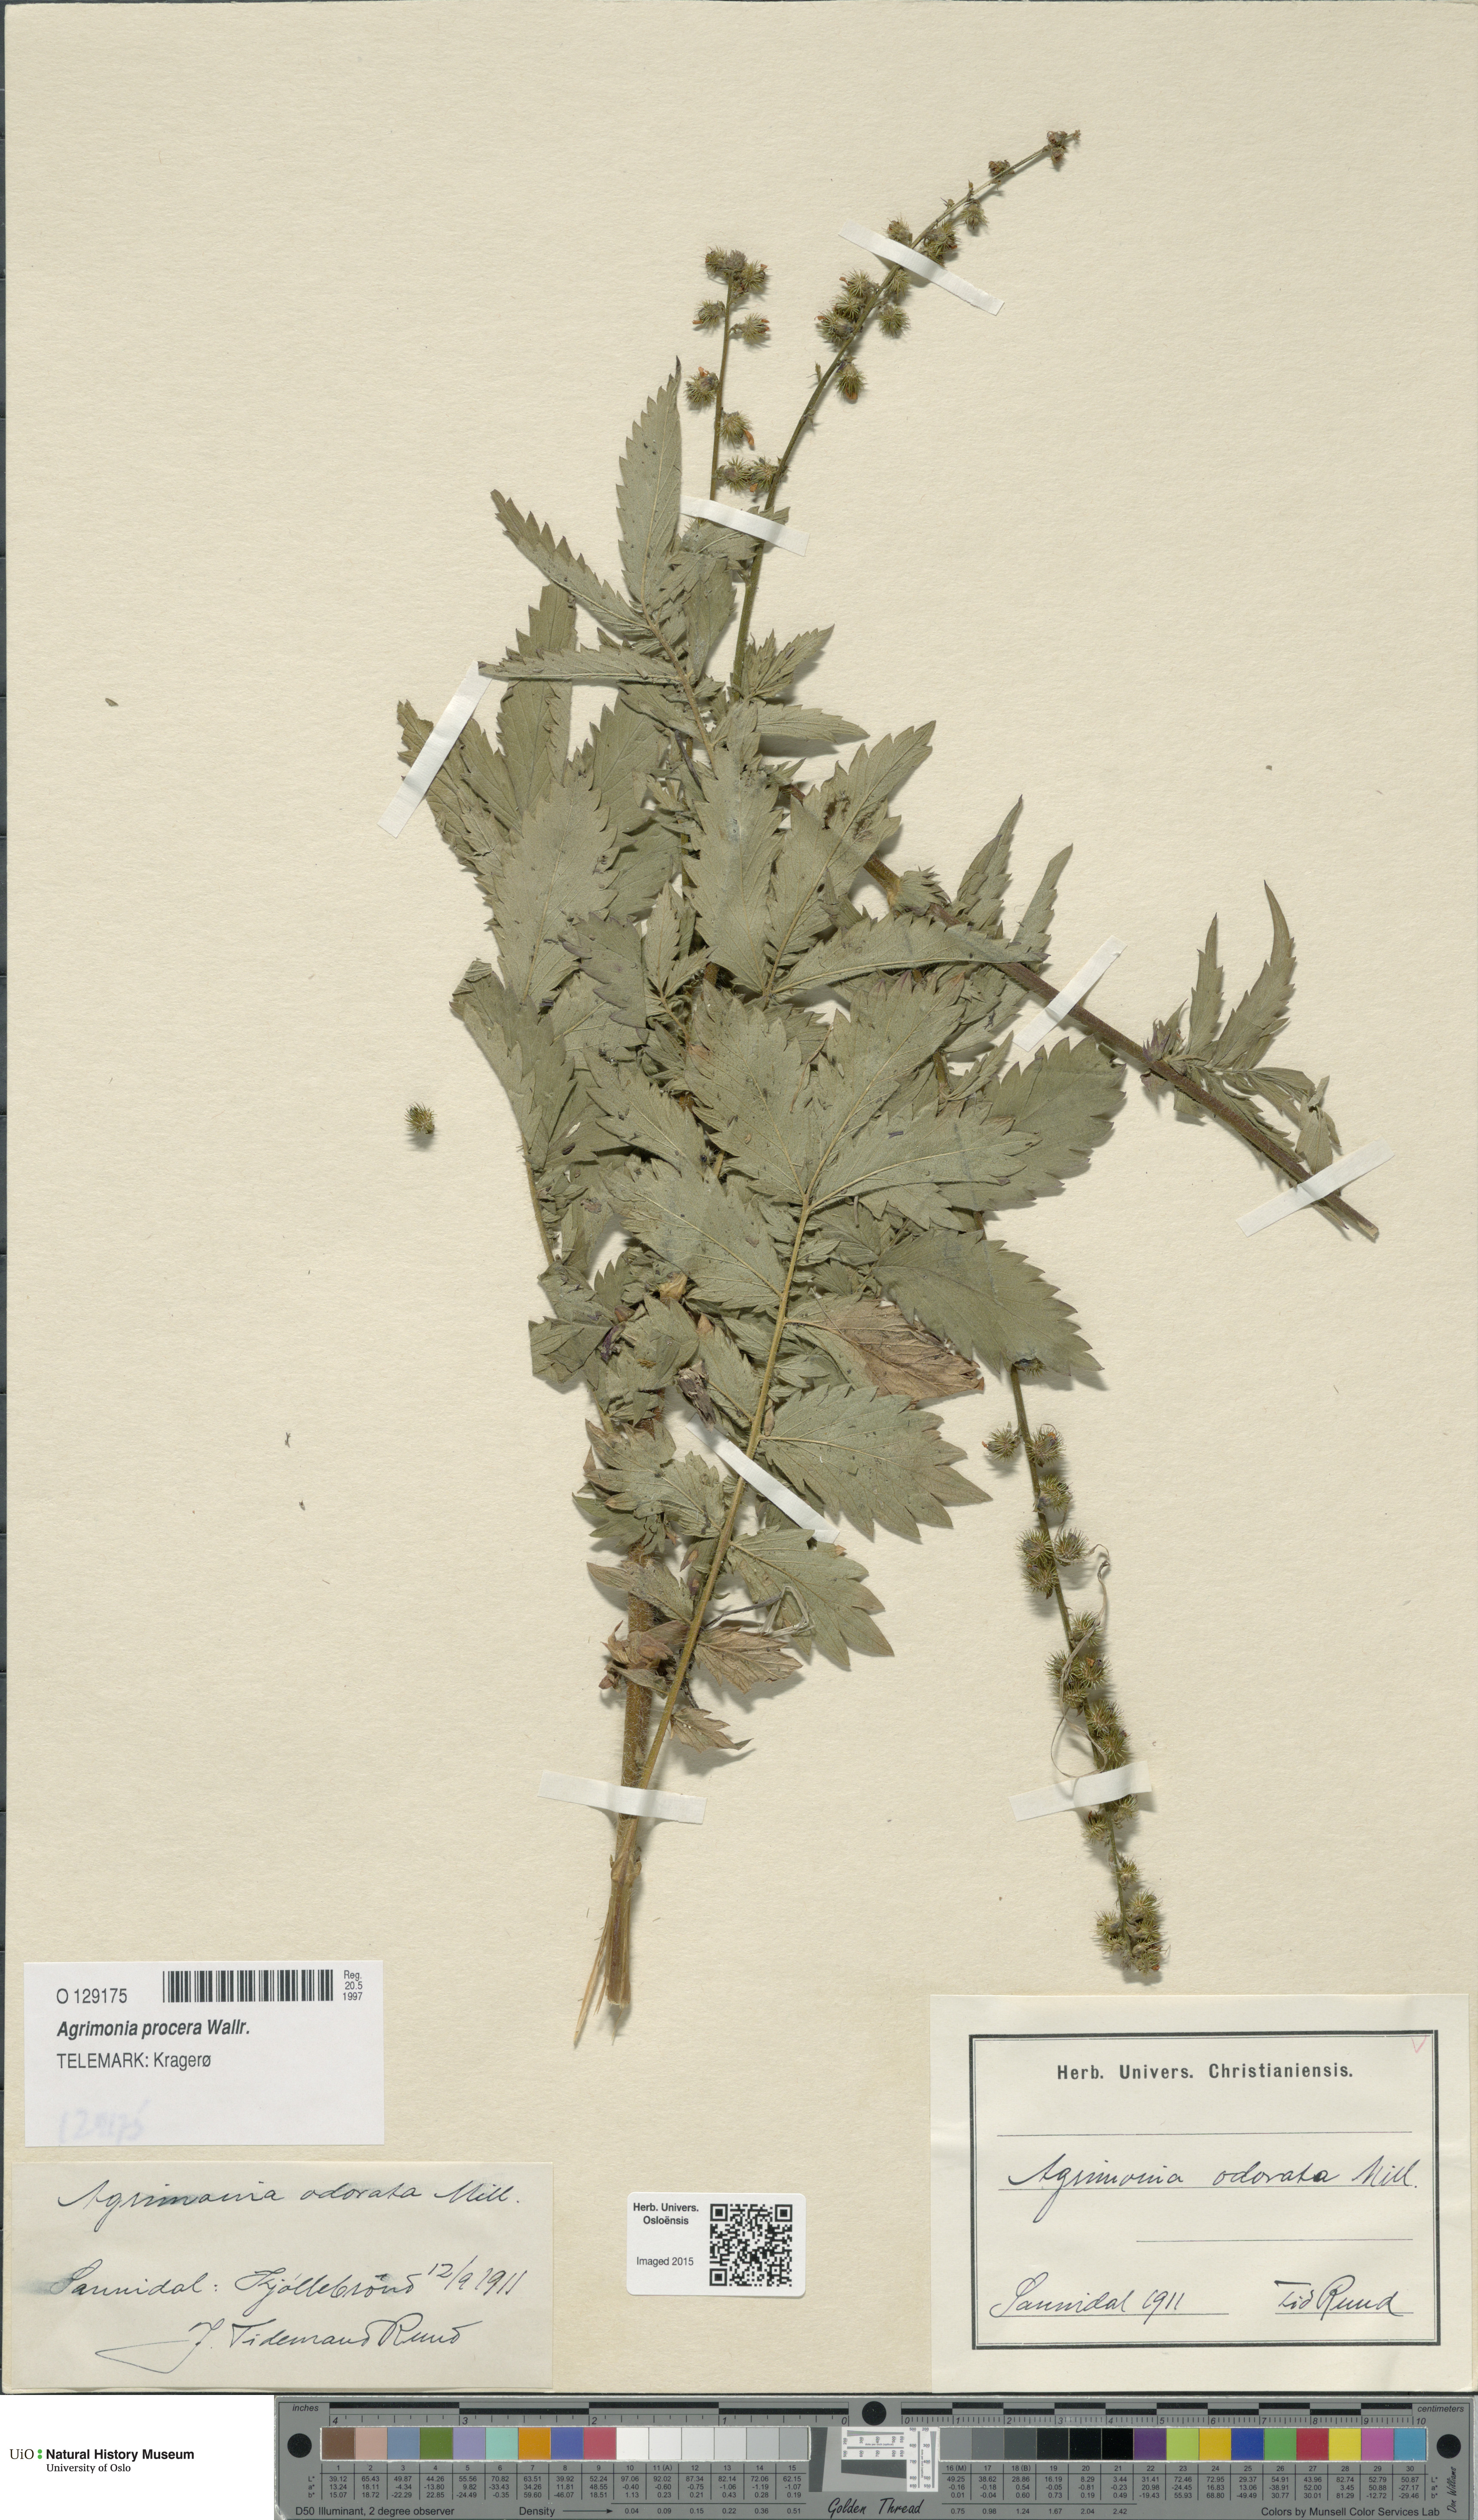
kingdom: Plantae
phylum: Tracheophyta
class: Magnoliopsida
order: Rosales
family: Rosaceae
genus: Agrimonia
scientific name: Agrimonia procera
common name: Fragrant agrimony
